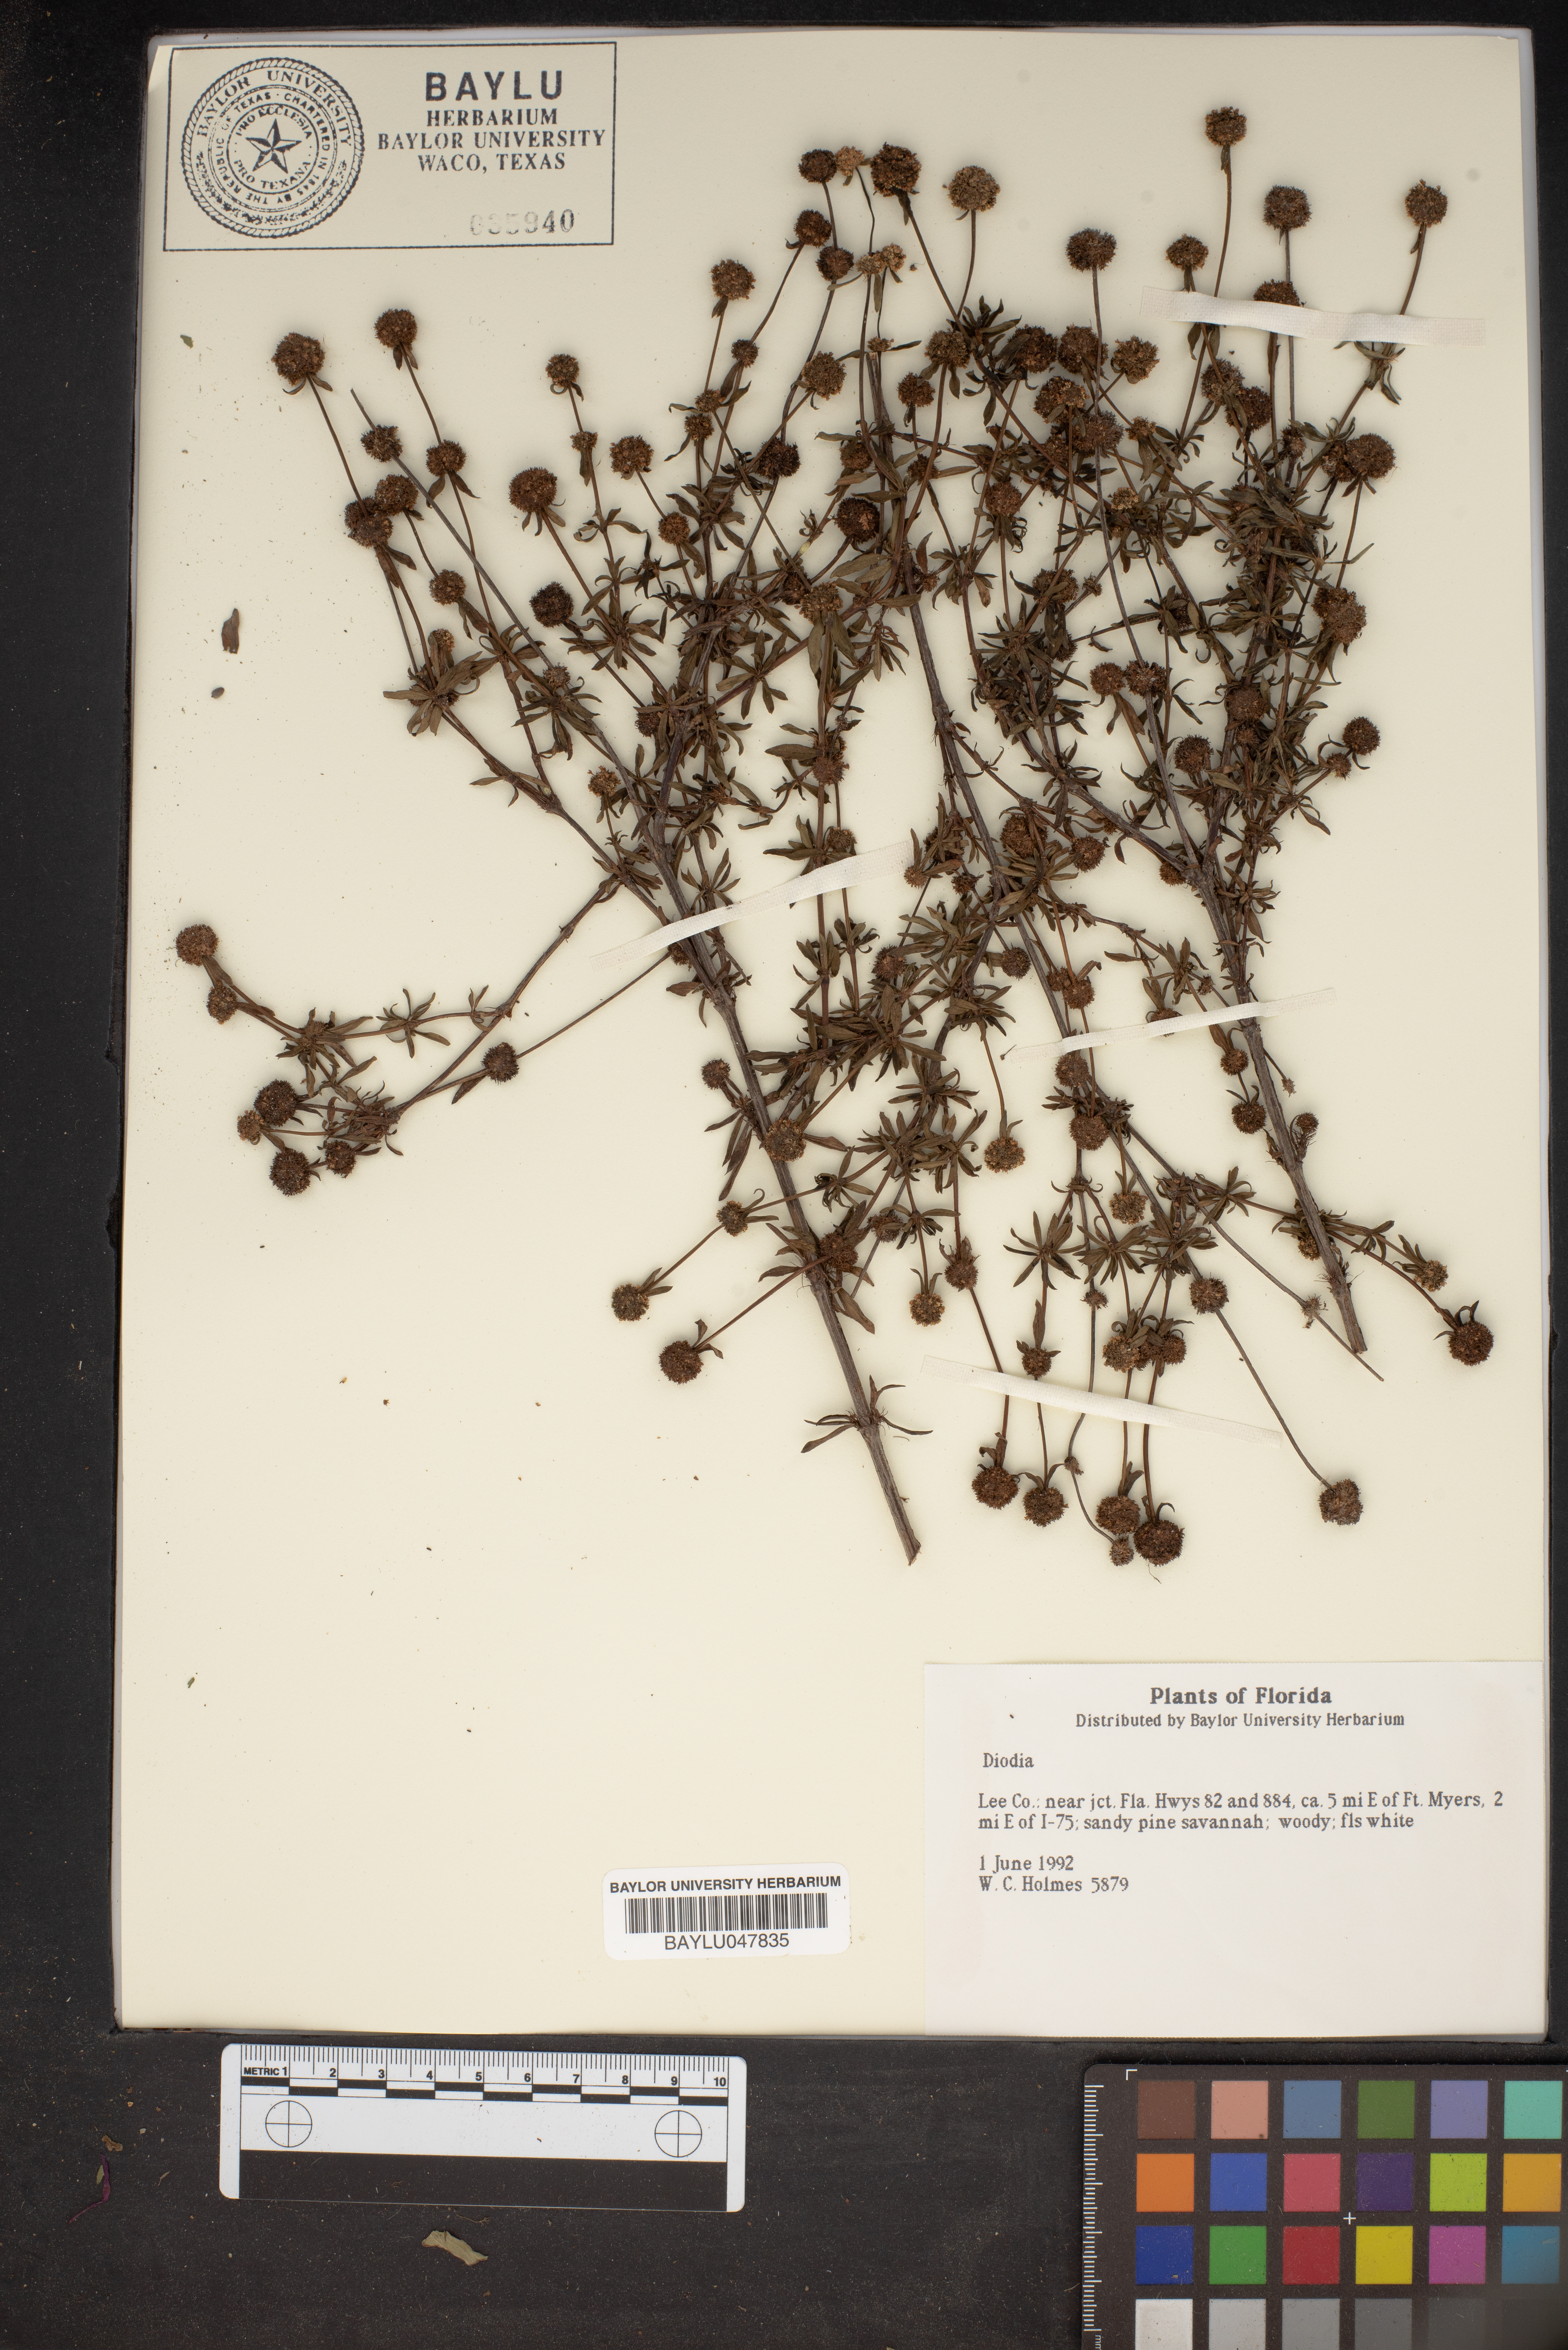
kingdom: Plantae
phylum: Tracheophyta
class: Magnoliopsida
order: Gentianales
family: Rubiaceae
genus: Diodia
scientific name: Diodia
